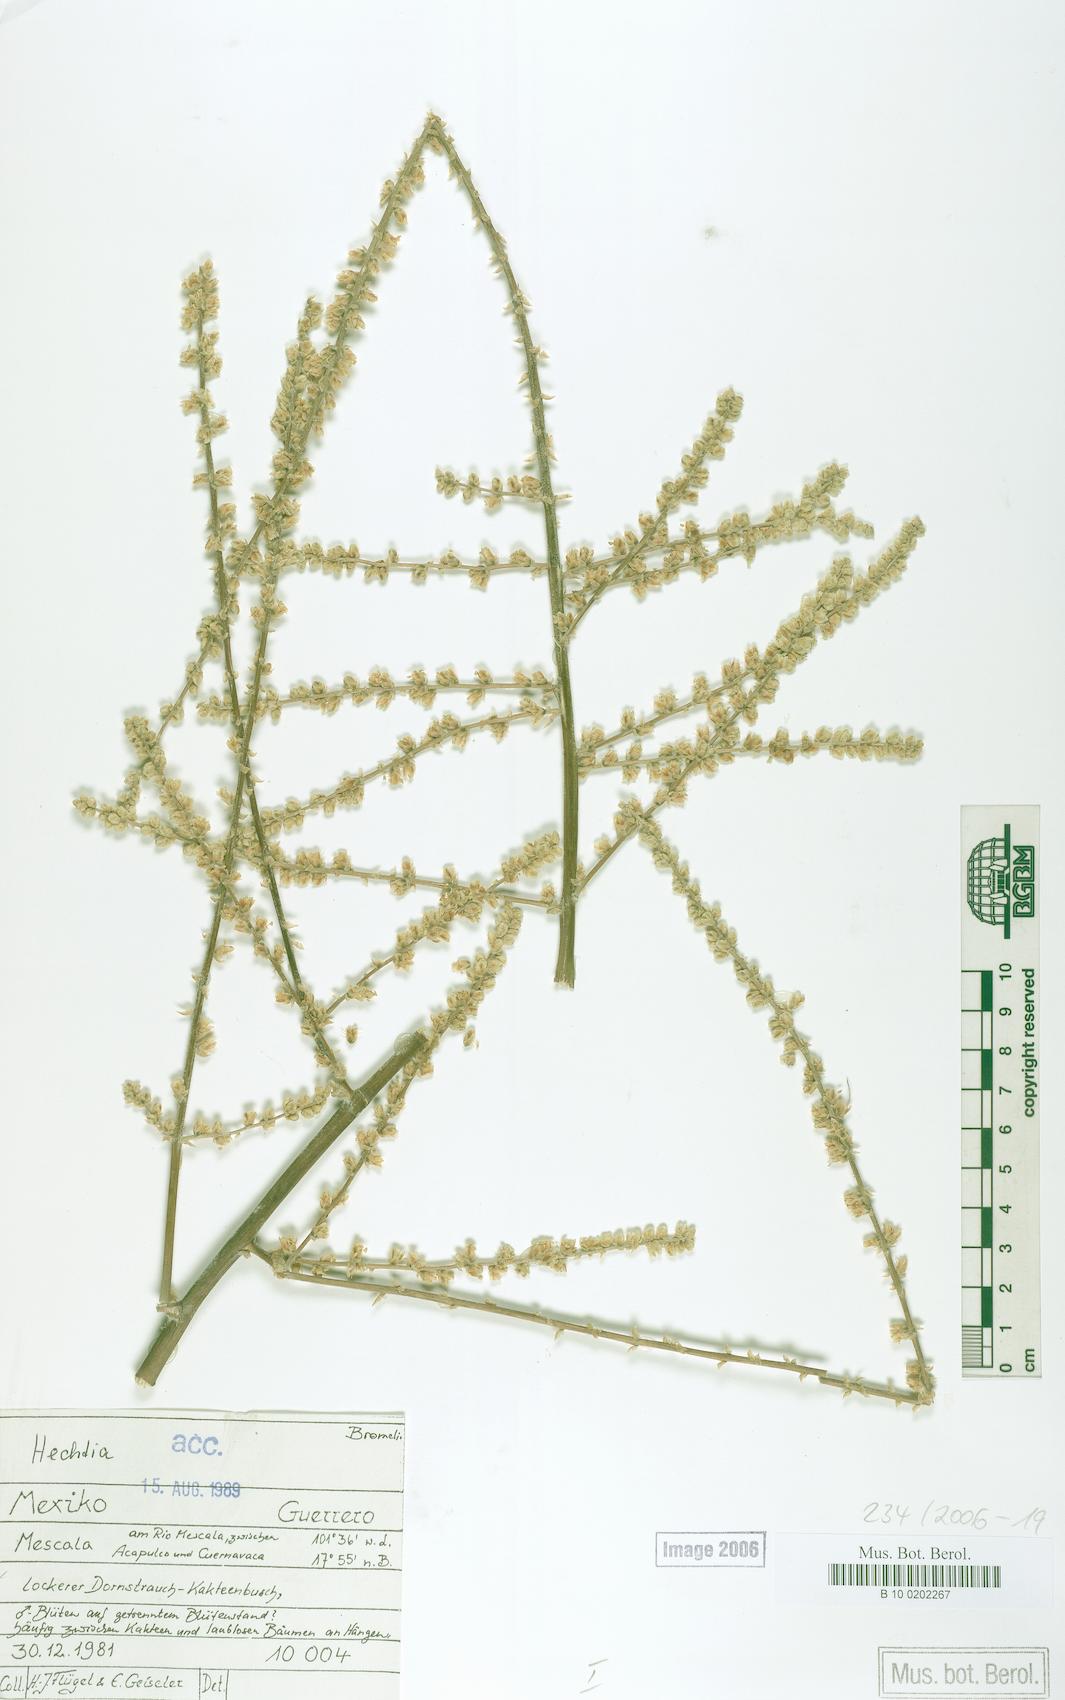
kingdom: Plantae
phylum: Tracheophyta
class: Liliopsida
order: Poales
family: Bromeliaceae
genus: Hechtia
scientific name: Hechtia melanocarpa
